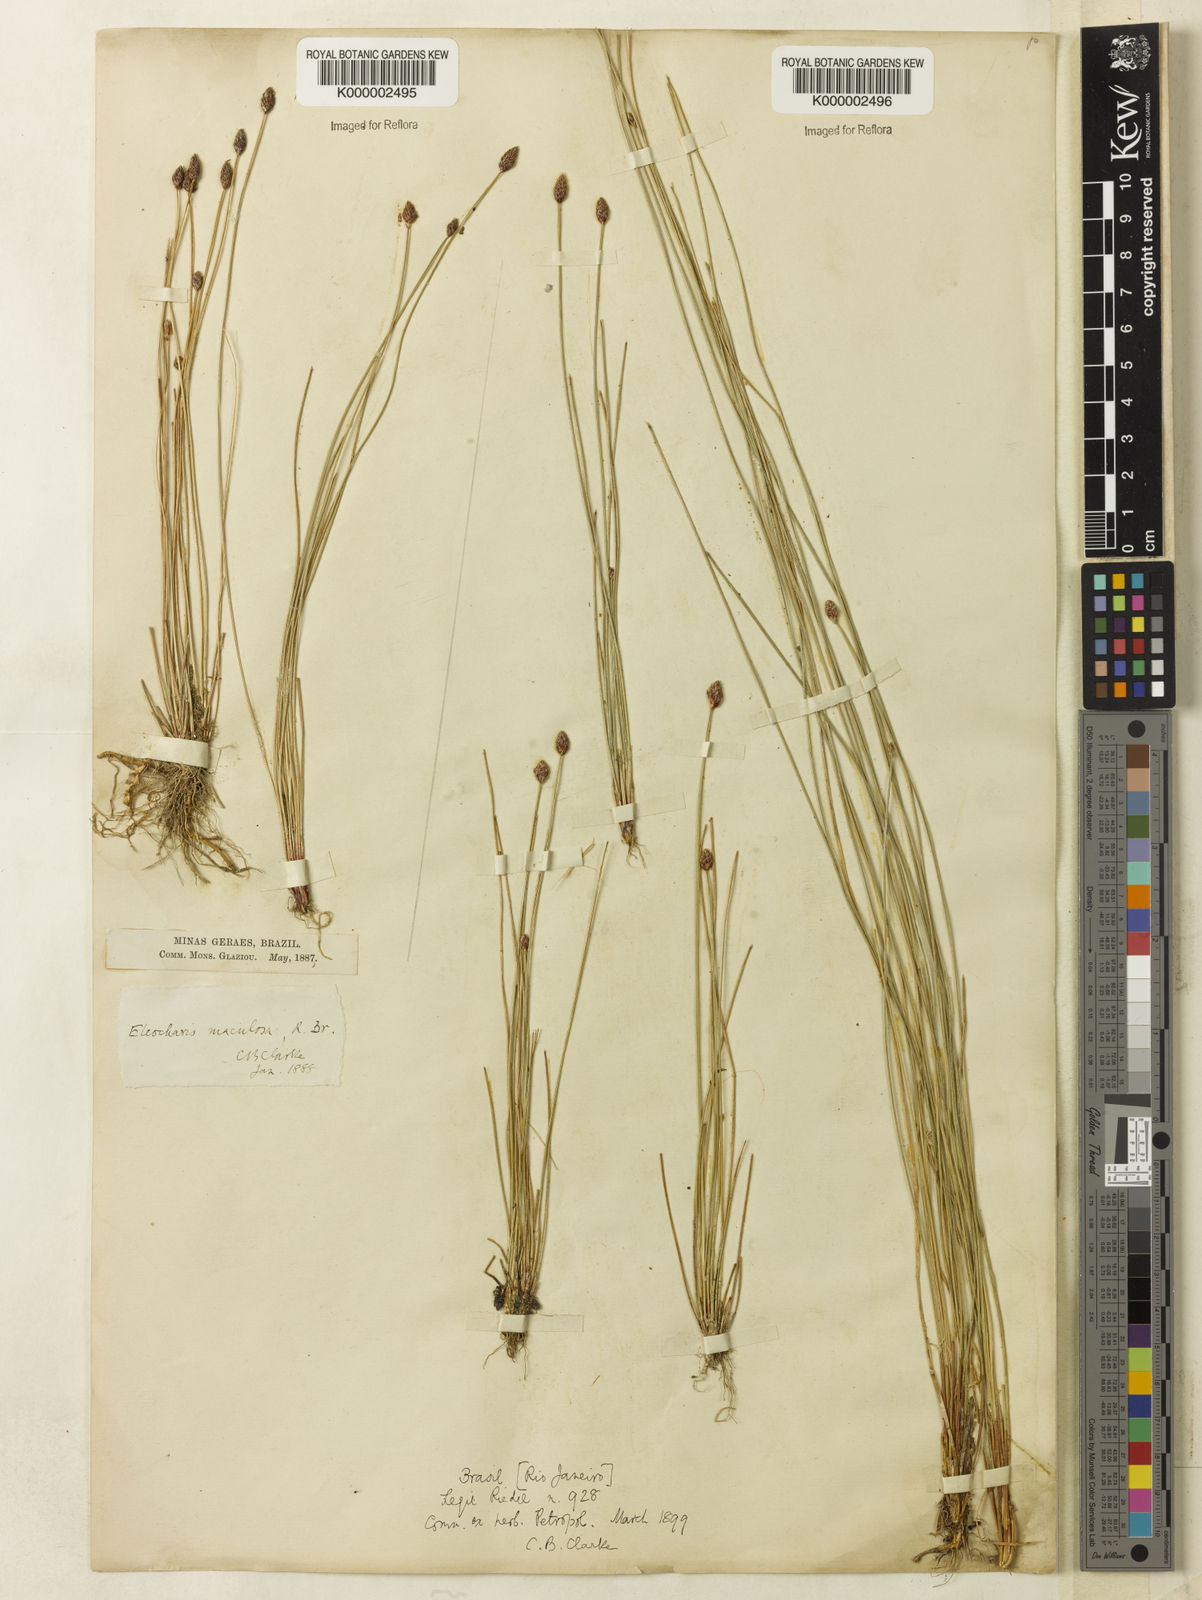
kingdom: Plantae
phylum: Tracheophyta
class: Liliopsida
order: Poales
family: Cyperaceae
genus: Eleocharis
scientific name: Eleocharis maculosa
